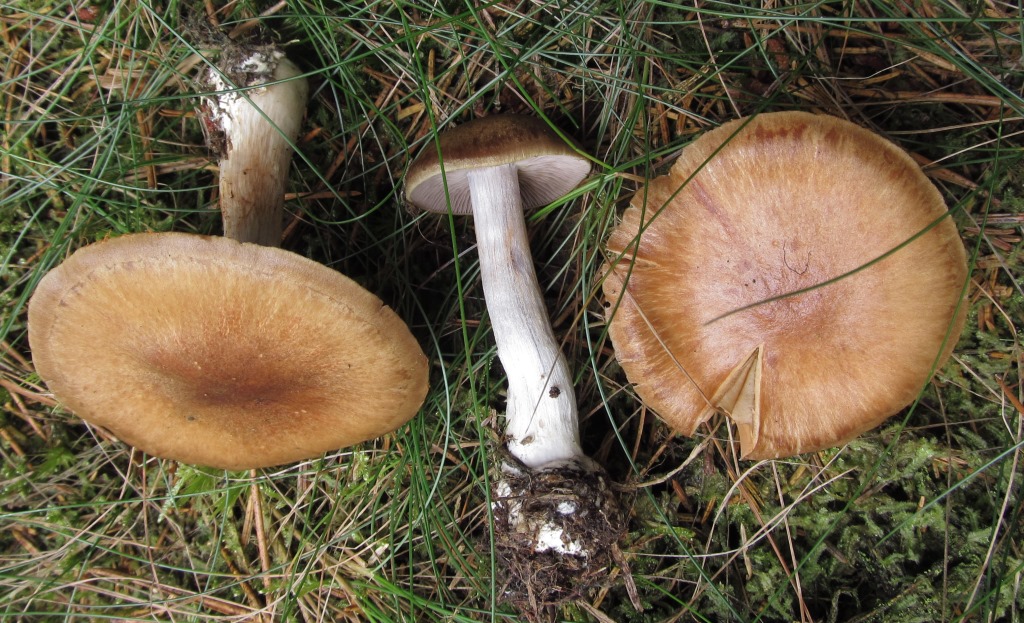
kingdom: Fungi
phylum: Basidiomycota
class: Agaricomycetes
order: Agaricales
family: Cortinariaceae
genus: Thaxterogaster
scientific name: Thaxterogaster sphagnophilus
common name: vandplettet slørhat
